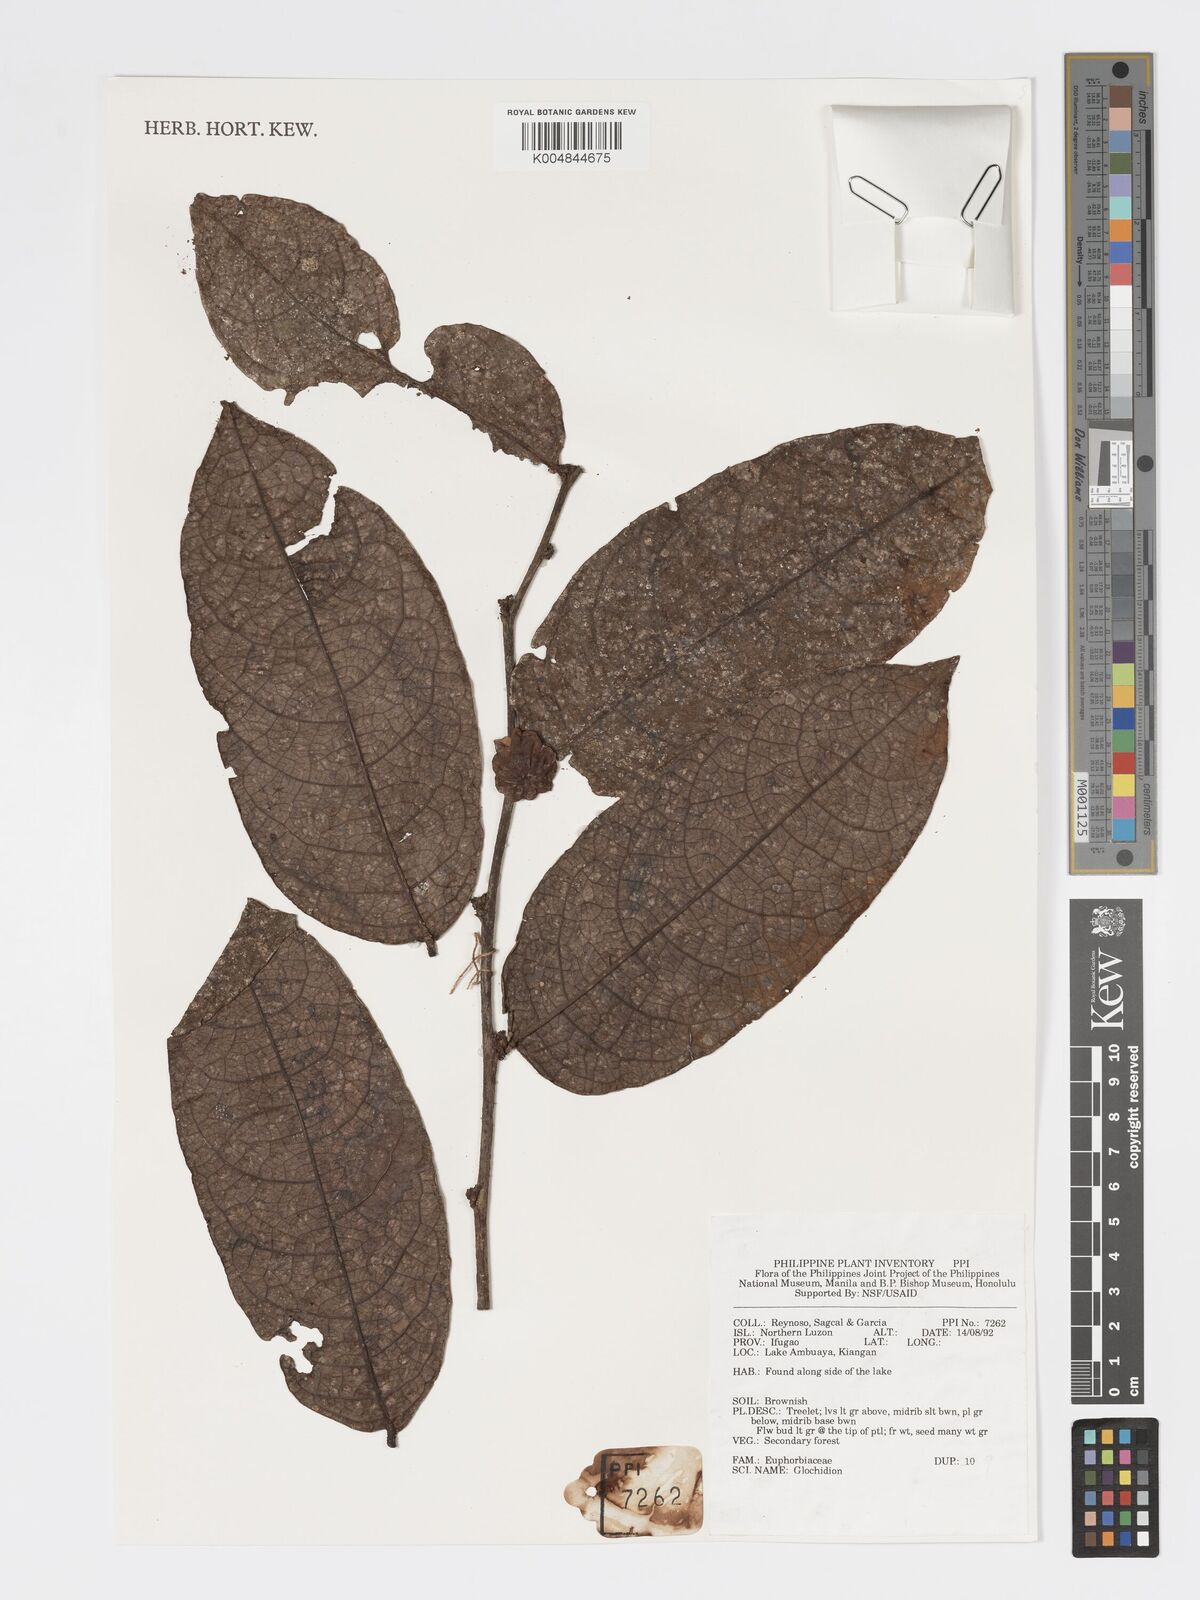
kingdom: Plantae
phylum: Tracheophyta
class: Magnoliopsida
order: Malpighiales
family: Phyllanthaceae
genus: Glochidion
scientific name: Glochidion
